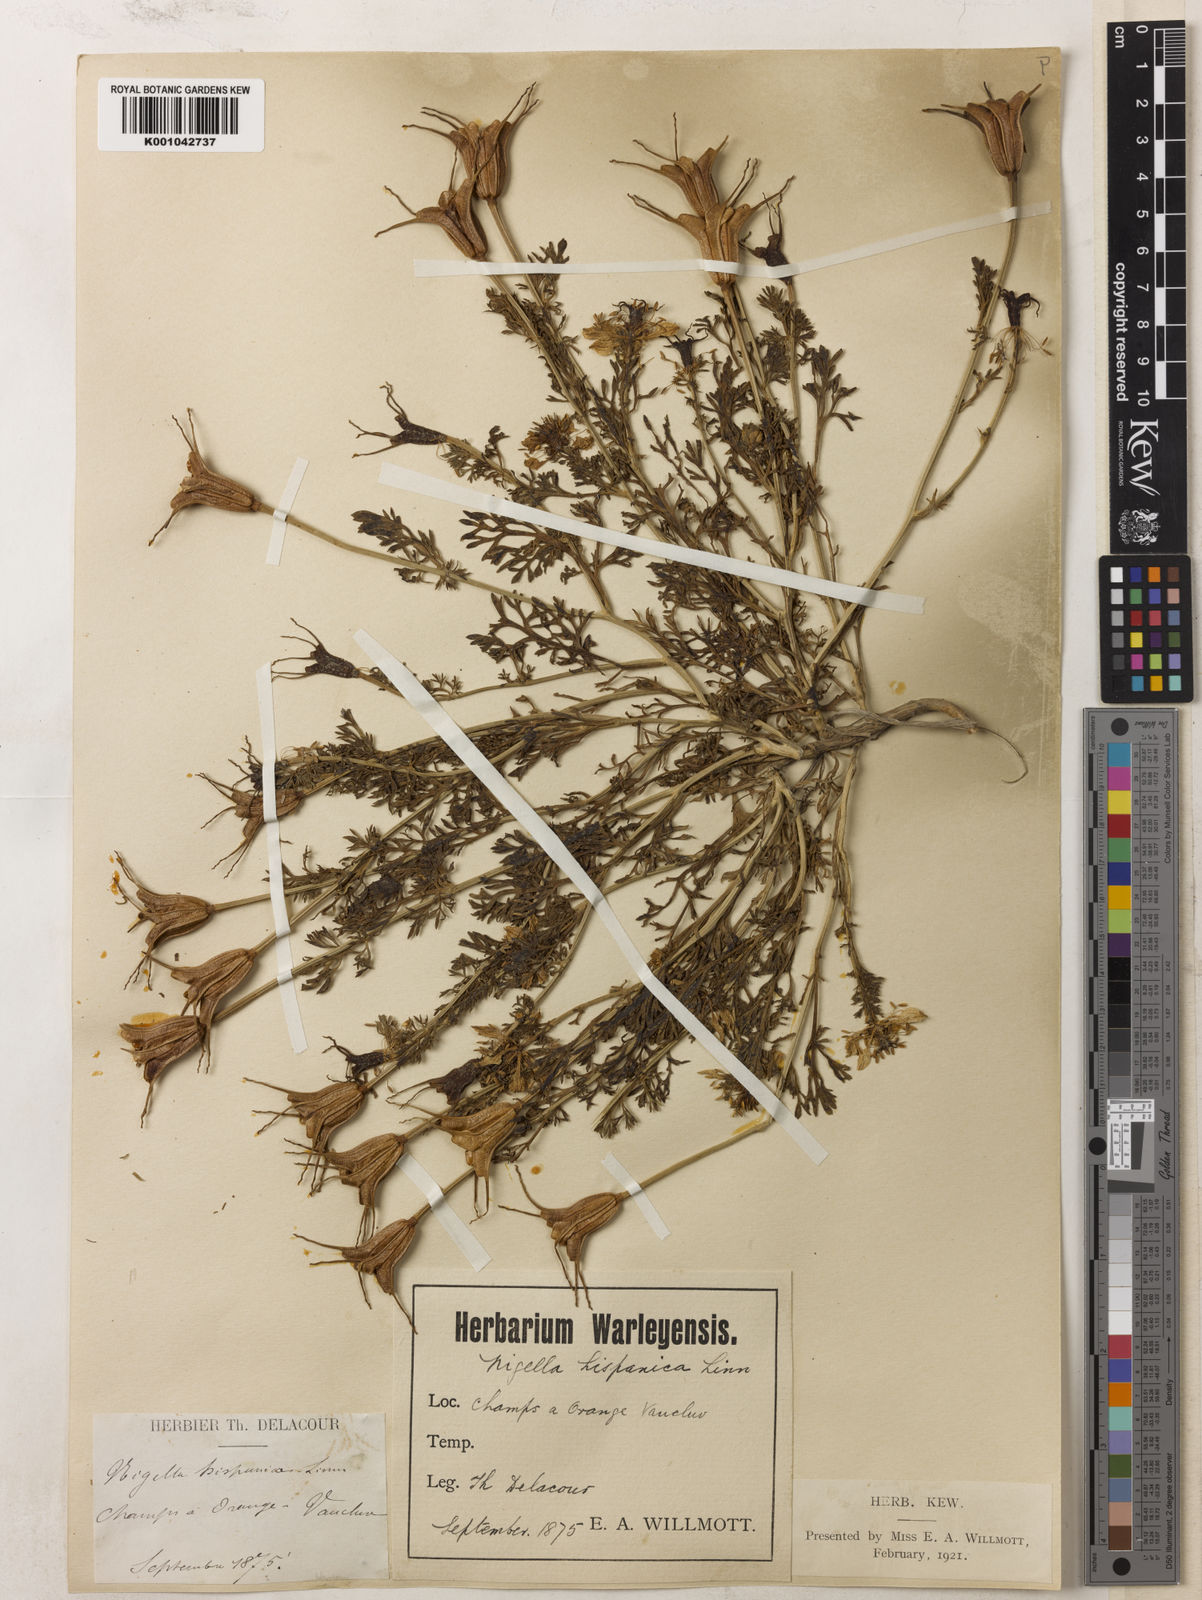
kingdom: Plantae
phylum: Tracheophyta
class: Magnoliopsida
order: Ranunculales
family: Ranunculaceae
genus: Nigella
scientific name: Nigella hispanica
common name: Fennel-flower
